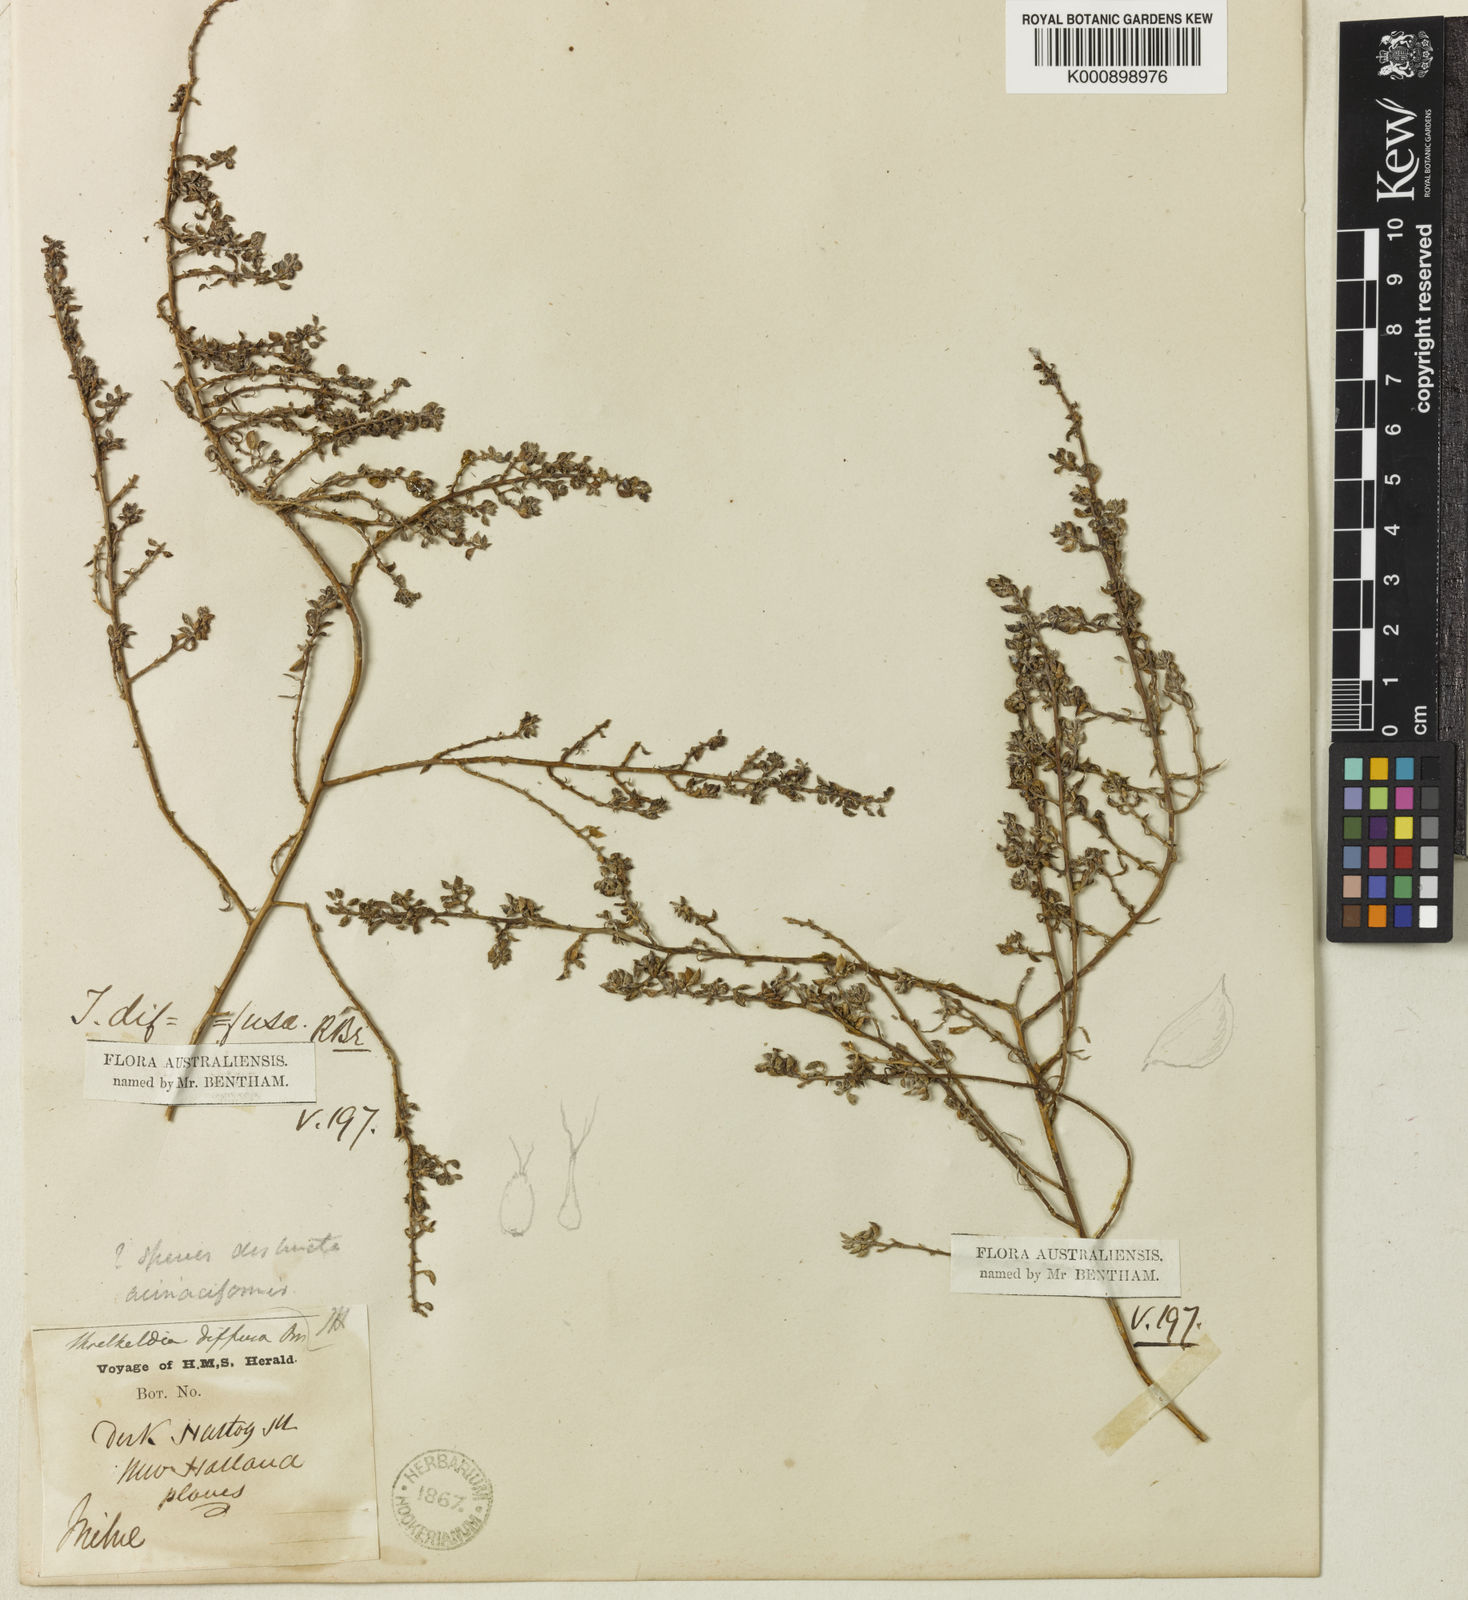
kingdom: Plantae
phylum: Tracheophyta
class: Magnoliopsida
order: Caryophyllales
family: Amaranthaceae
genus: Threlkeldia
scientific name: Threlkeldia diffusa
